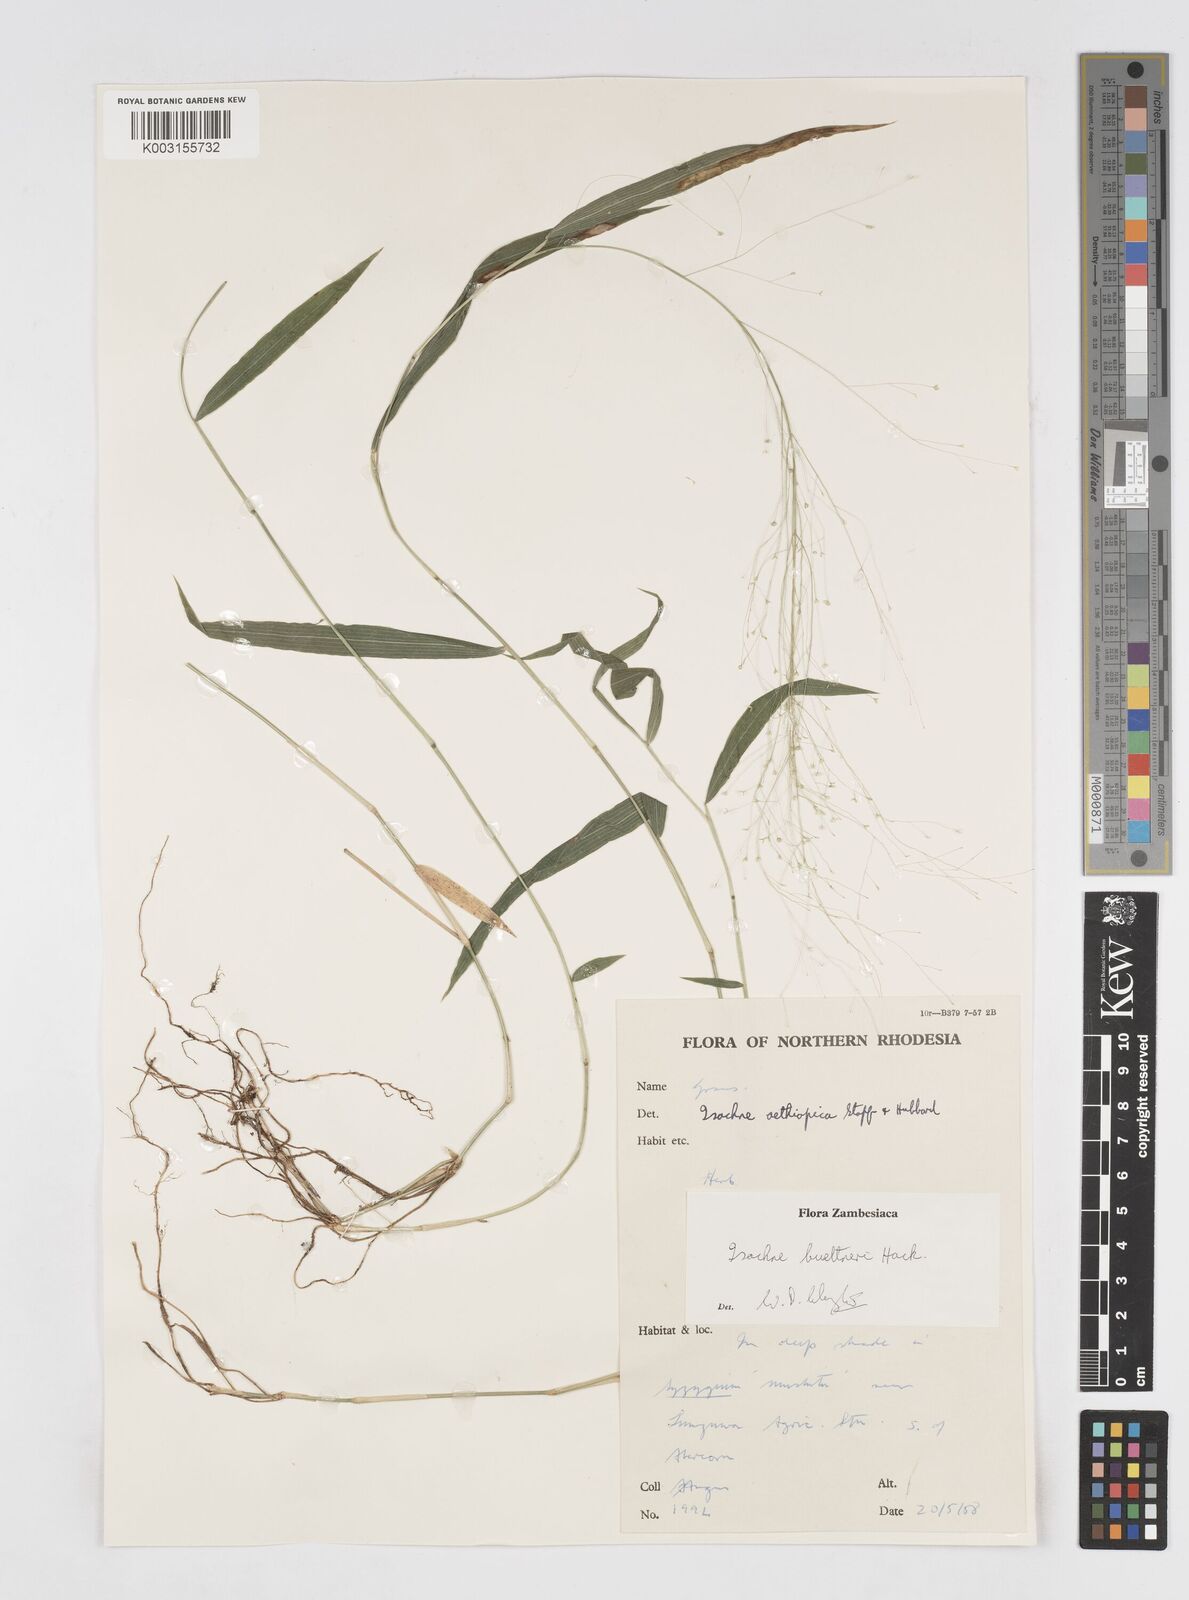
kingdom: Plantae
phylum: Tracheophyta
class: Liliopsida
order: Poales
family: Poaceae
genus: Isachne
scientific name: Isachne albens
